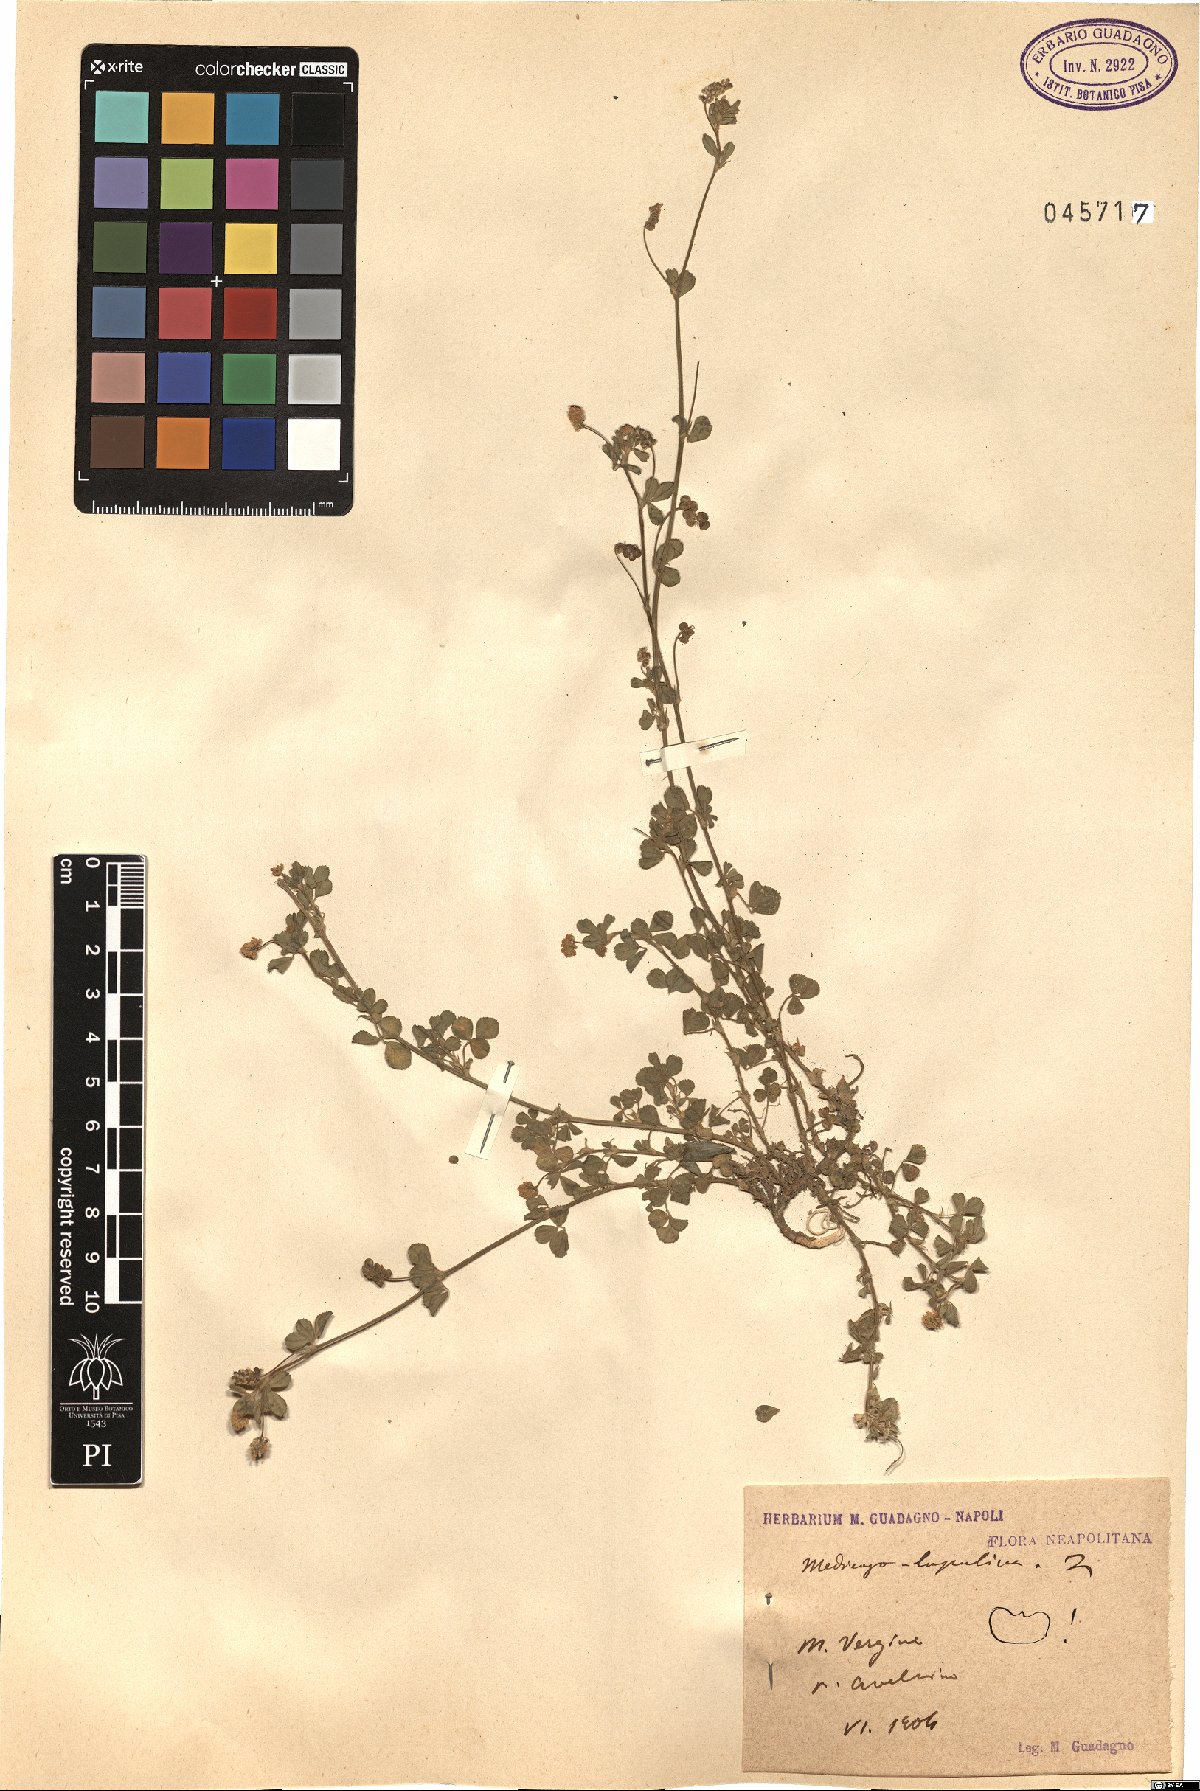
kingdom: Plantae
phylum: Tracheophyta
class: Magnoliopsida
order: Fabales
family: Fabaceae
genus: Medicago
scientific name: Medicago lupulina
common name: Black medick
